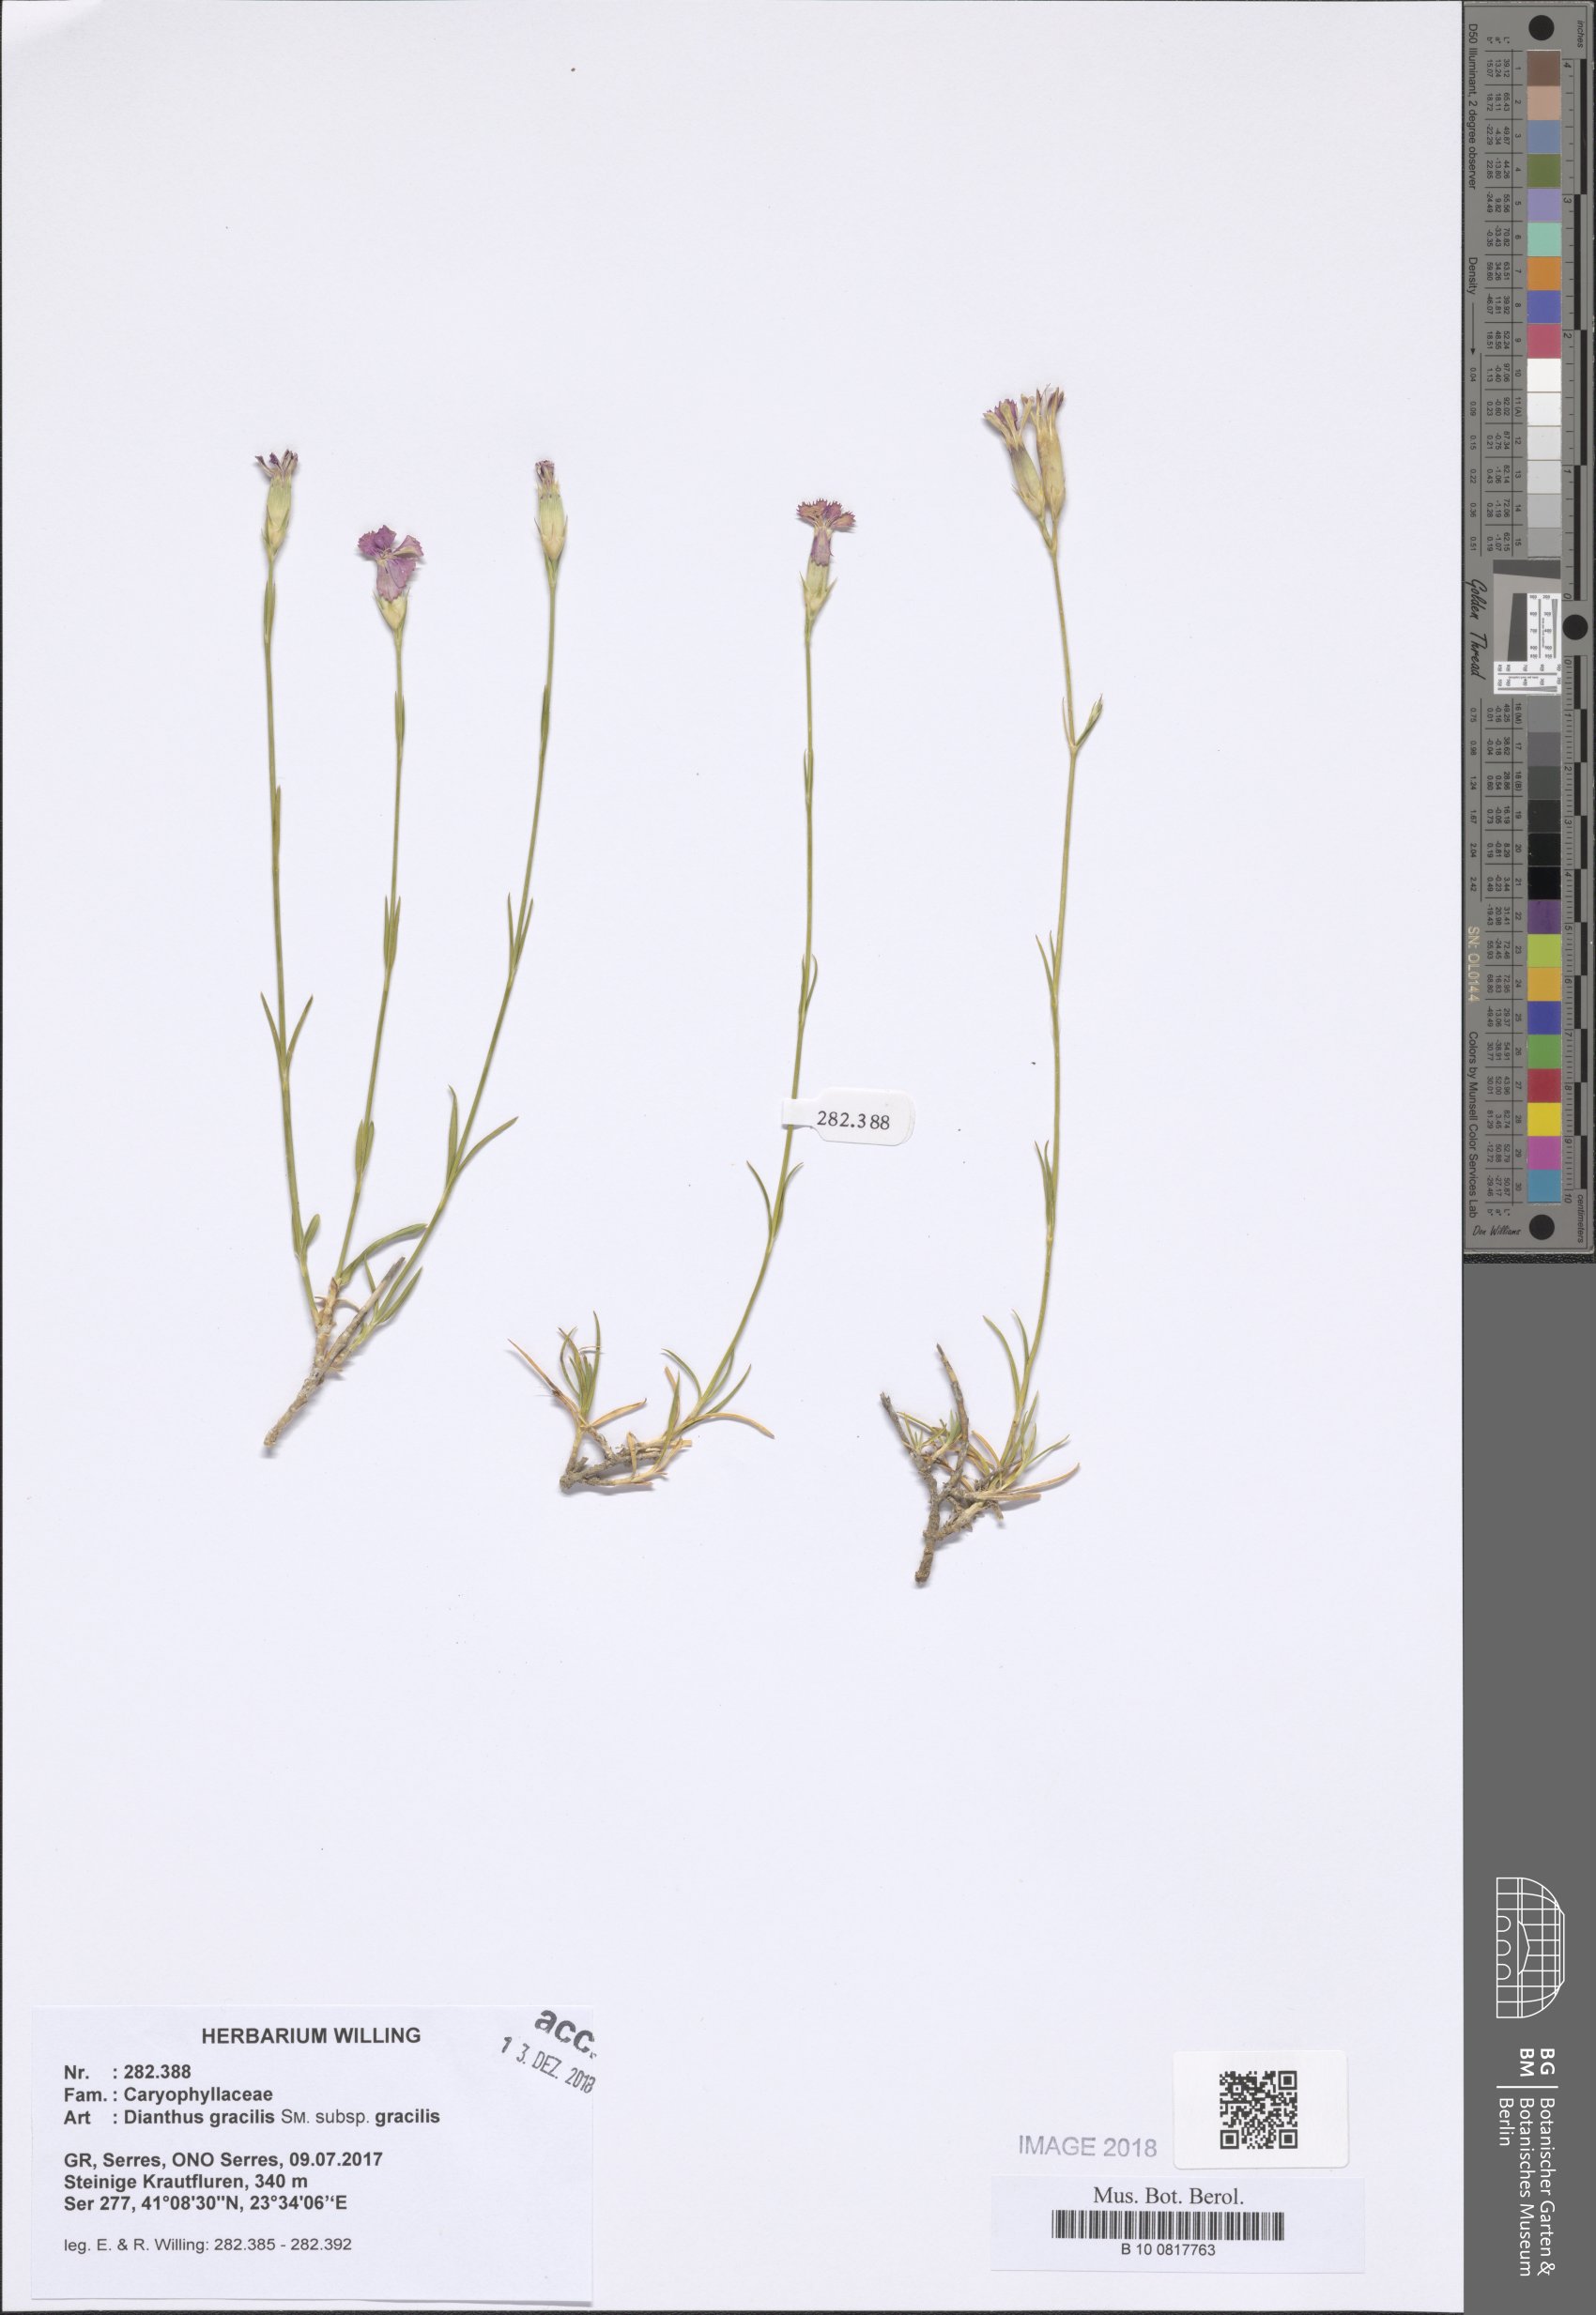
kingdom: Plantae
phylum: Tracheophyta
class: Magnoliopsida
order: Caryophyllales
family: Caryophyllaceae
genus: Dianthus
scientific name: Dianthus gracilis
